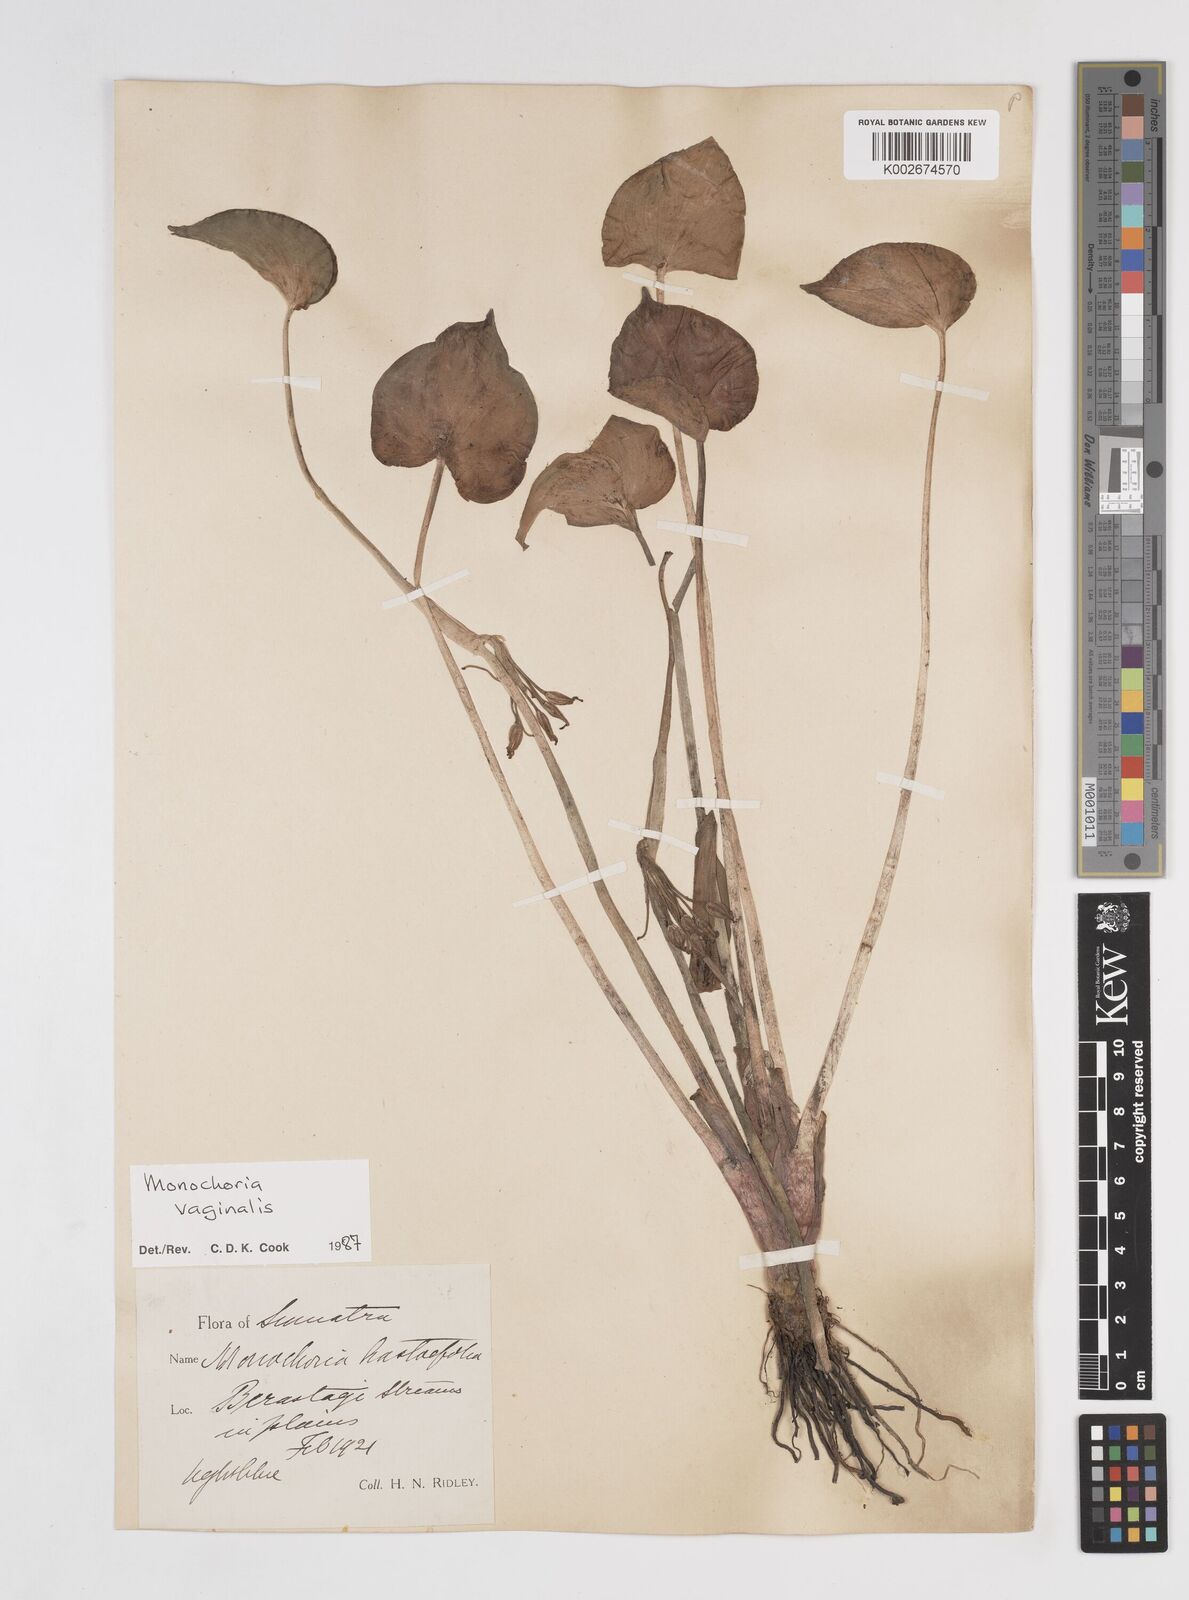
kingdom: Plantae
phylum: Tracheophyta
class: Liliopsida
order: Commelinales
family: Pontederiaceae
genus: Pontederia
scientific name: Pontederia vaginalis
